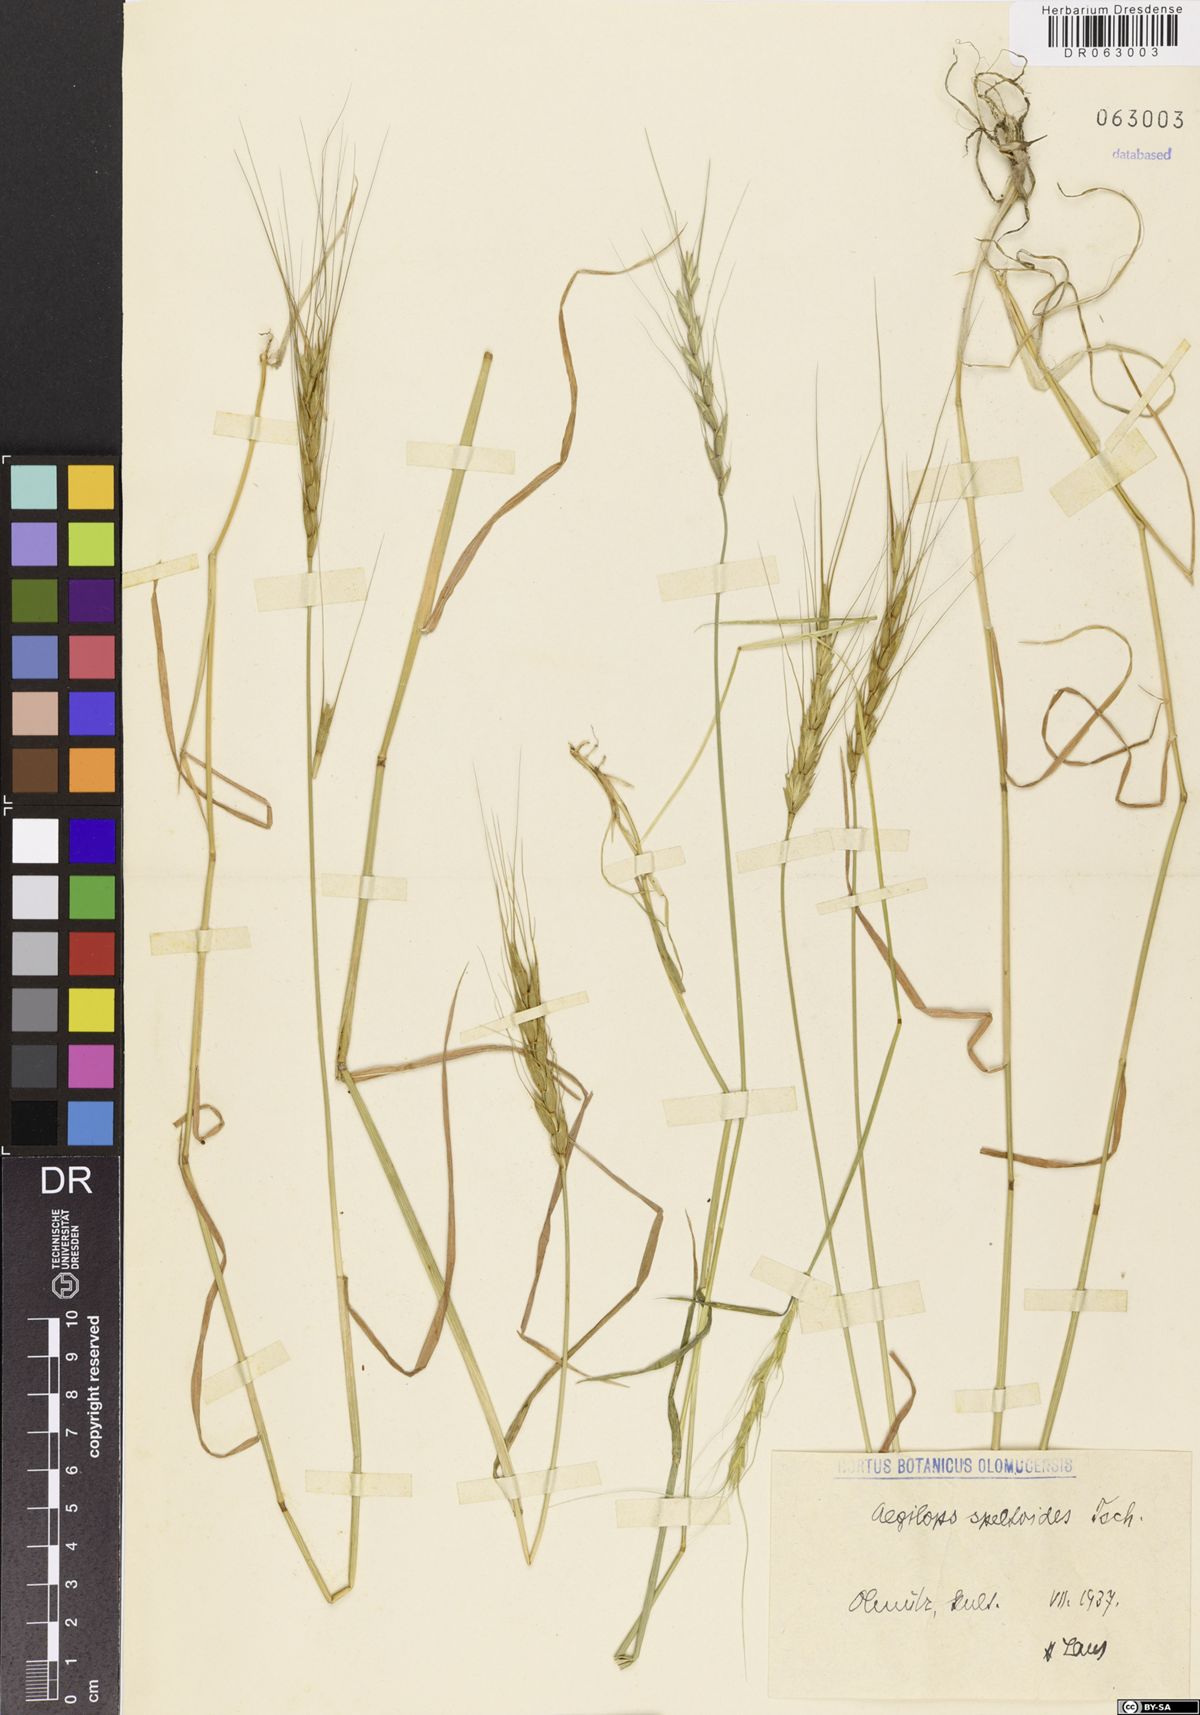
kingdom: Plantae
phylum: Tracheophyta
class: Liliopsida
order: Poales
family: Poaceae
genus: Aegilops
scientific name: Aegilops speltoides
